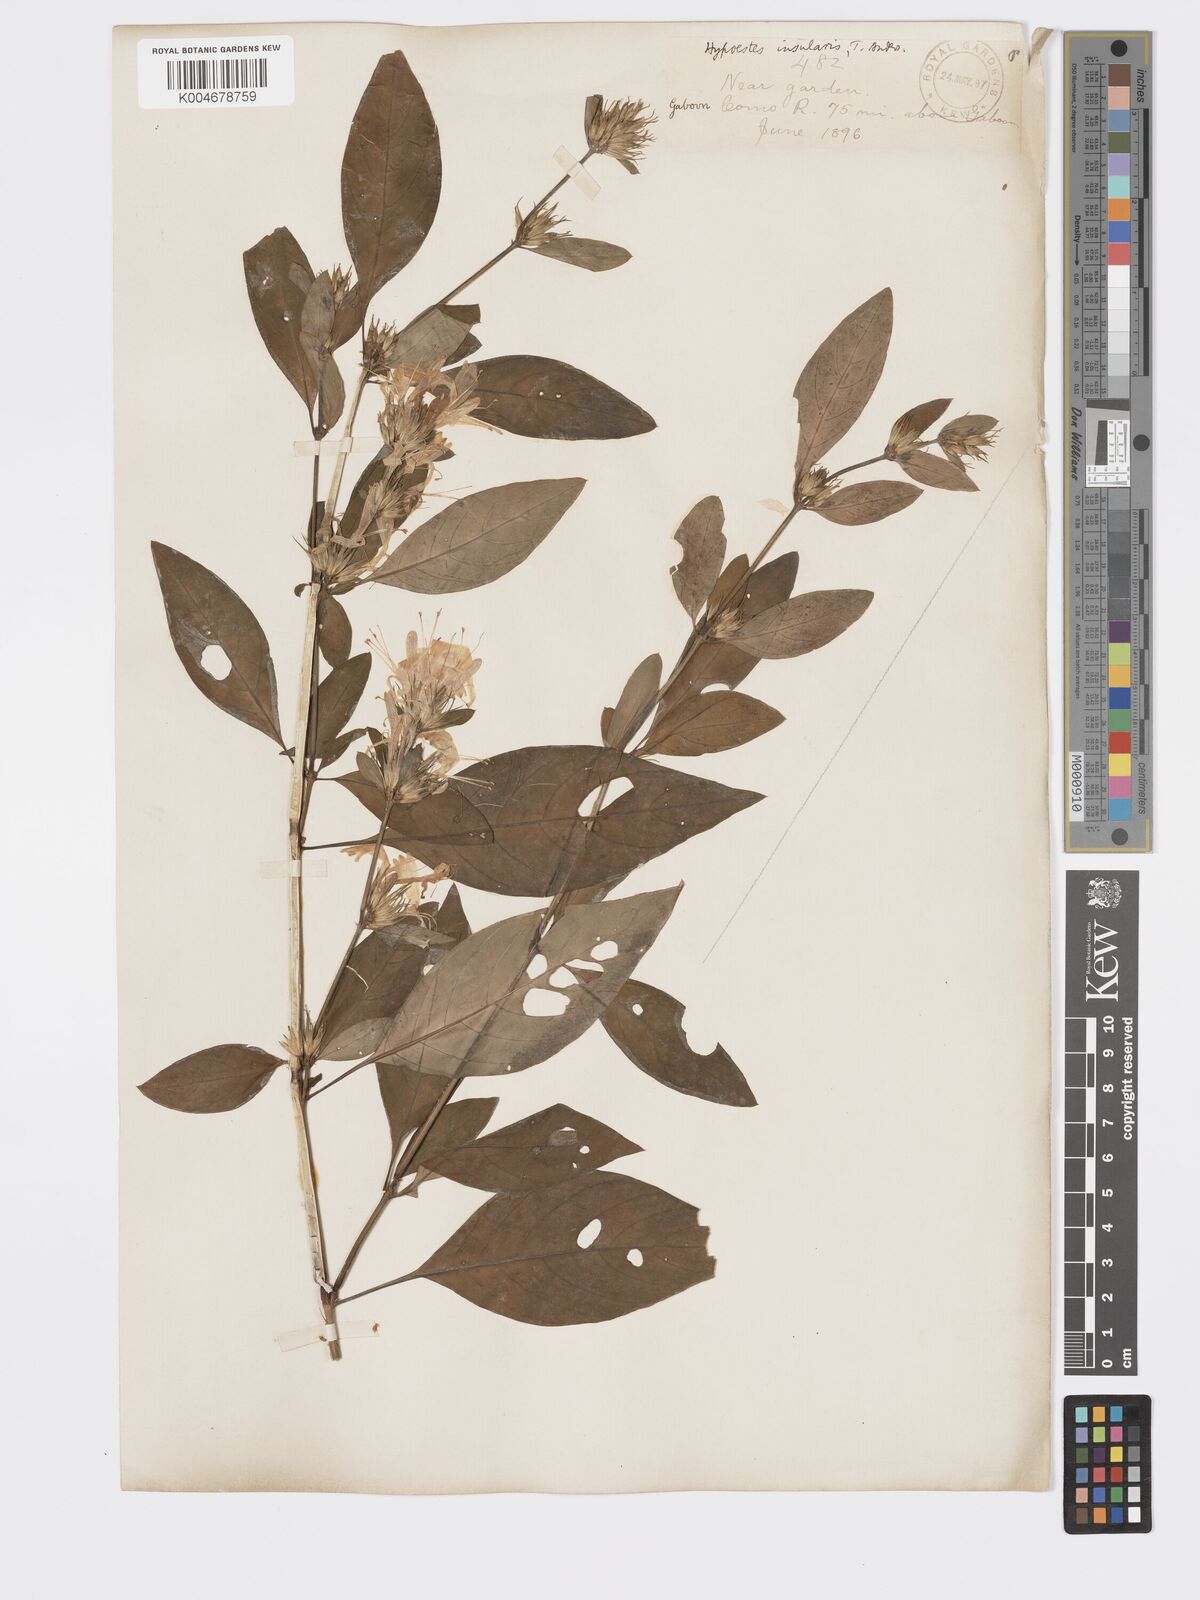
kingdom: Plantae
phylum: Tracheophyta
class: Magnoliopsida
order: Lamiales
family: Acanthaceae
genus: Hypoestes
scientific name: Hypoestes aristata
